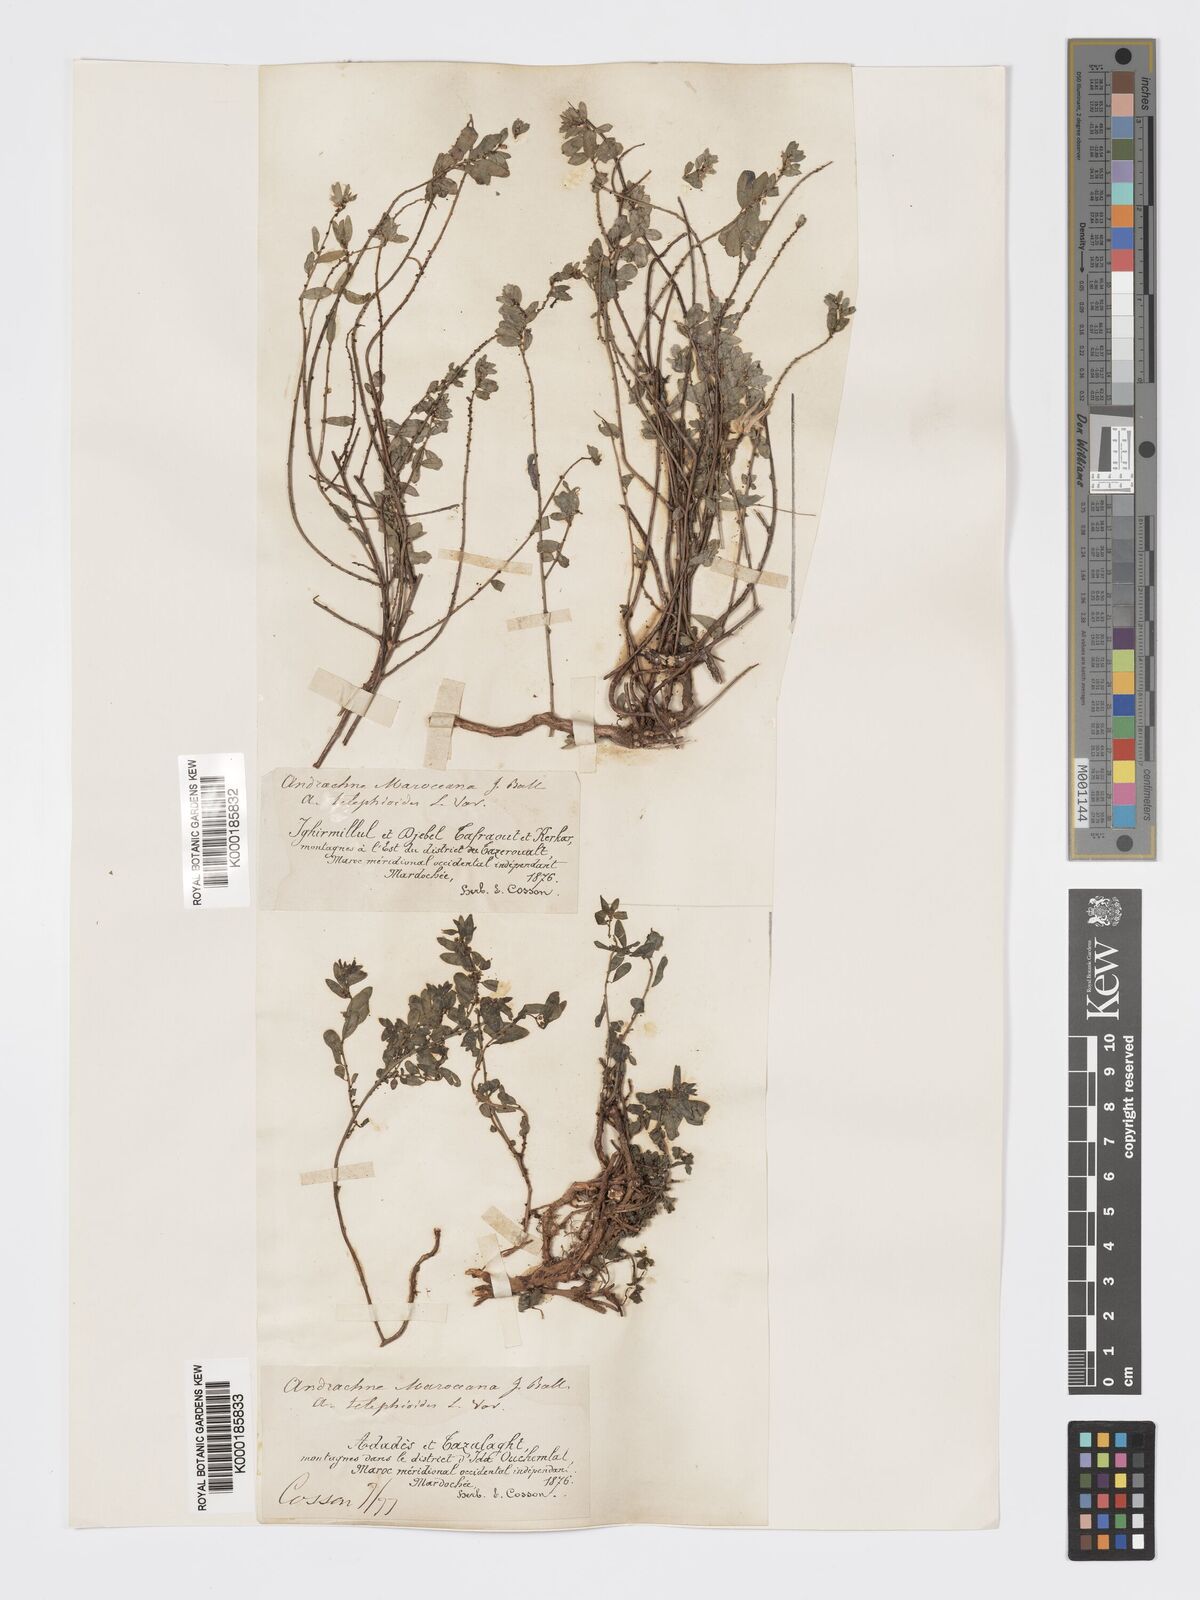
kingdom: Plantae
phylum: Tracheophyta
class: Magnoliopsida
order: Malpighiales
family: Phyllanthaceae
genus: Andrachne
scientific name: Andrachne maroccana
